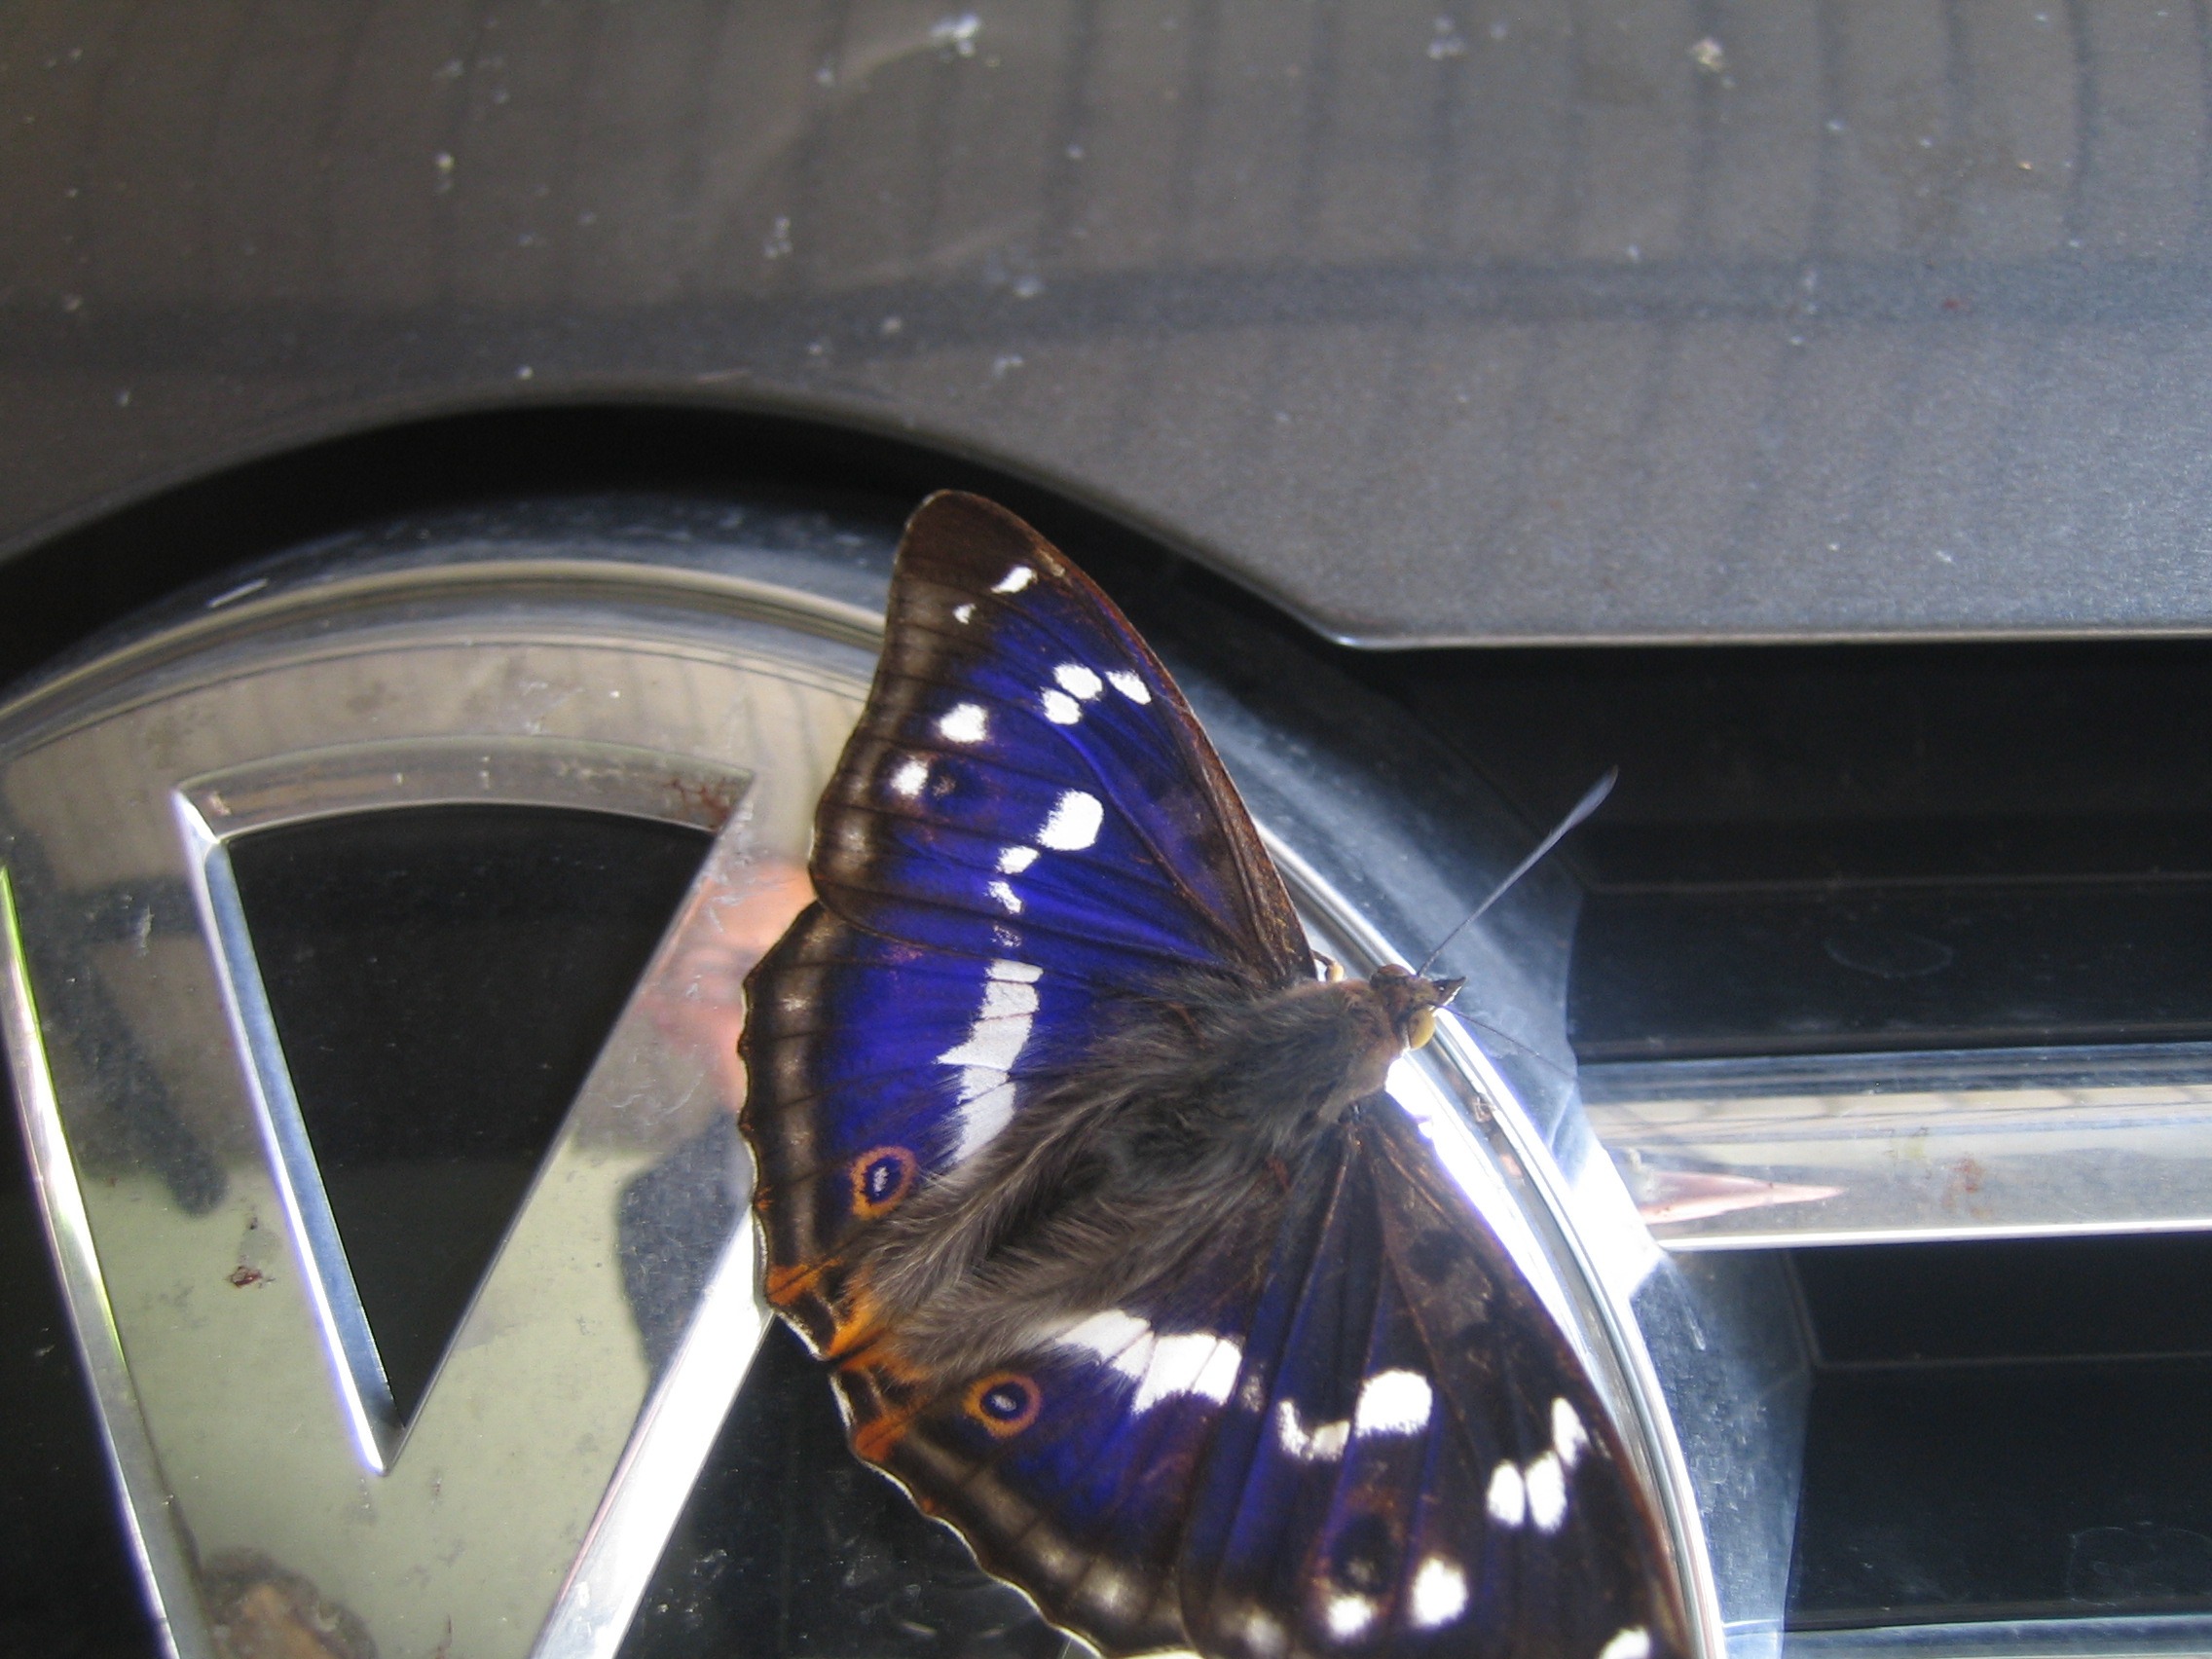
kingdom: Animalia
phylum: Arthropoda
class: Insecta
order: Lepidoptera
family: Nymphalidae
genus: Apatura
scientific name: Apatura iris
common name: Iris
